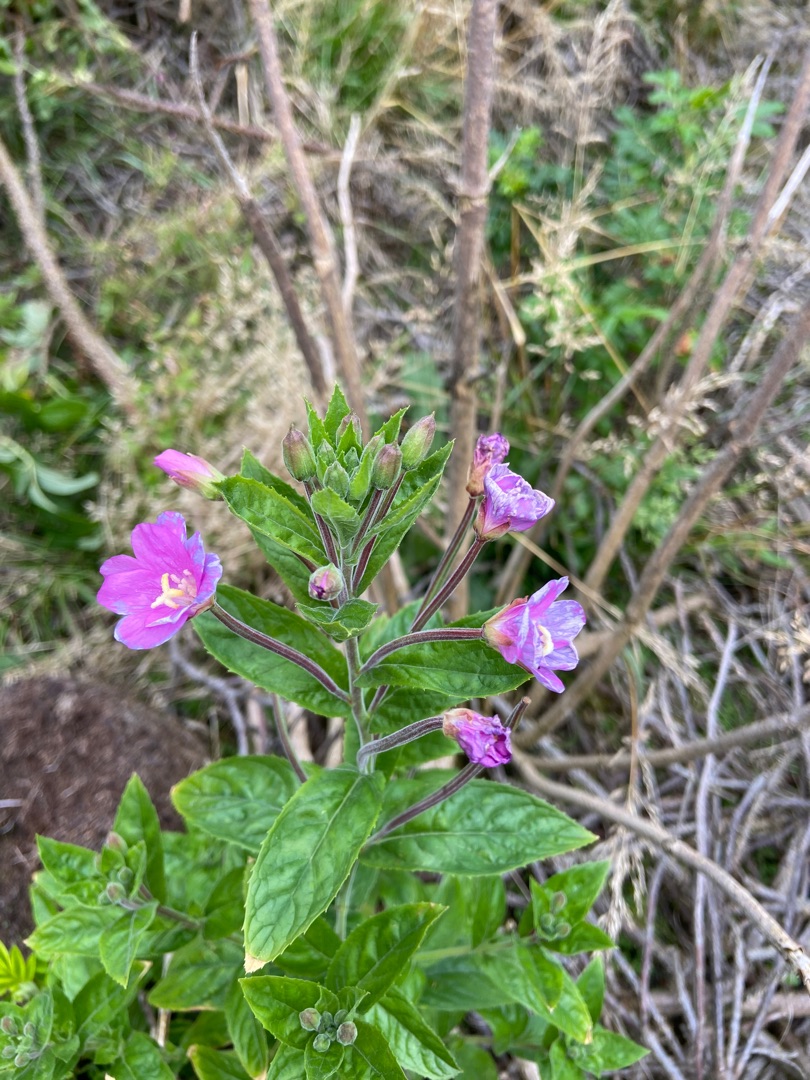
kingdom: Plantae
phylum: Tracheophyta
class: Magnoliopsida
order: Myrtales
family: Onagraceae
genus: Epilobium
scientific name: Epilobium hirsutum
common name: Lådden dueurt
